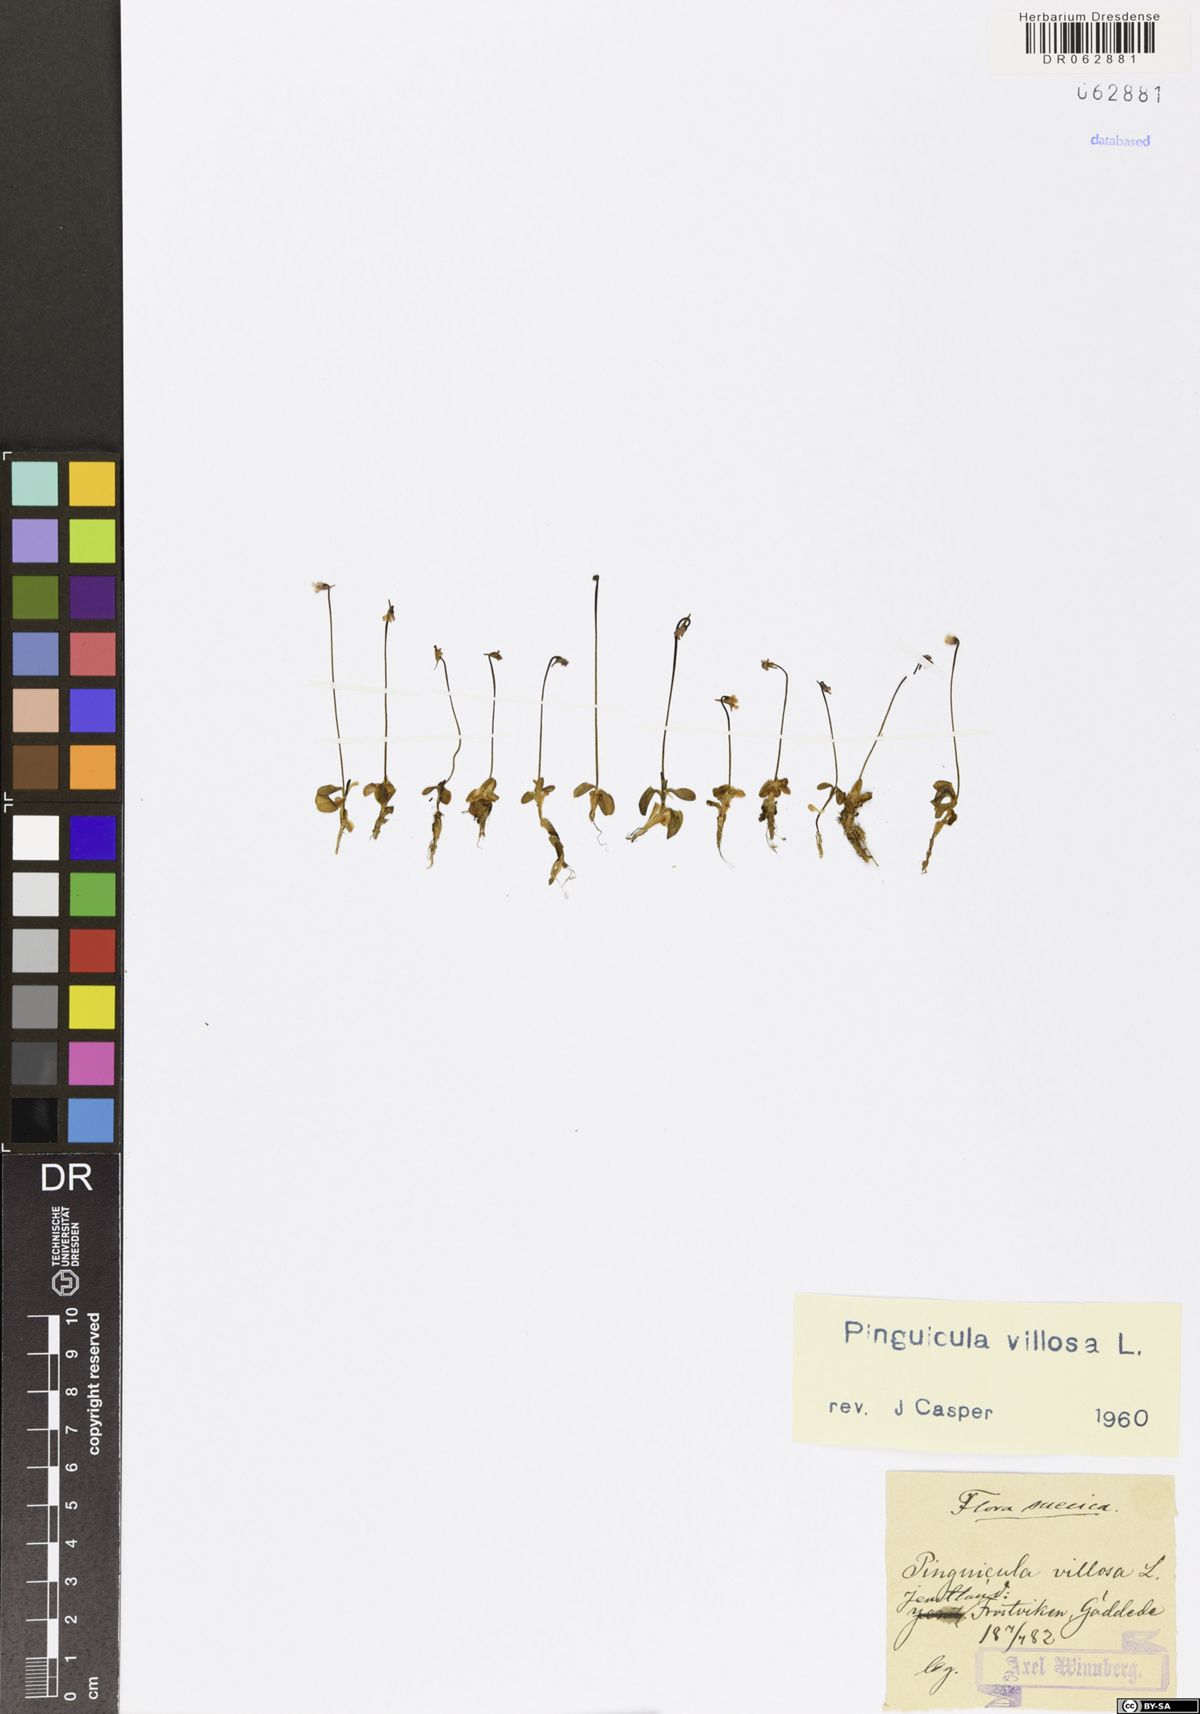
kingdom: Plantae
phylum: Tracheophyta
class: Magnoliopsida
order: Lamiales
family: Lentibulariaceae
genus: Pinguicula
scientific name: Pinguicula villosa
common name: Hairy butterwort
